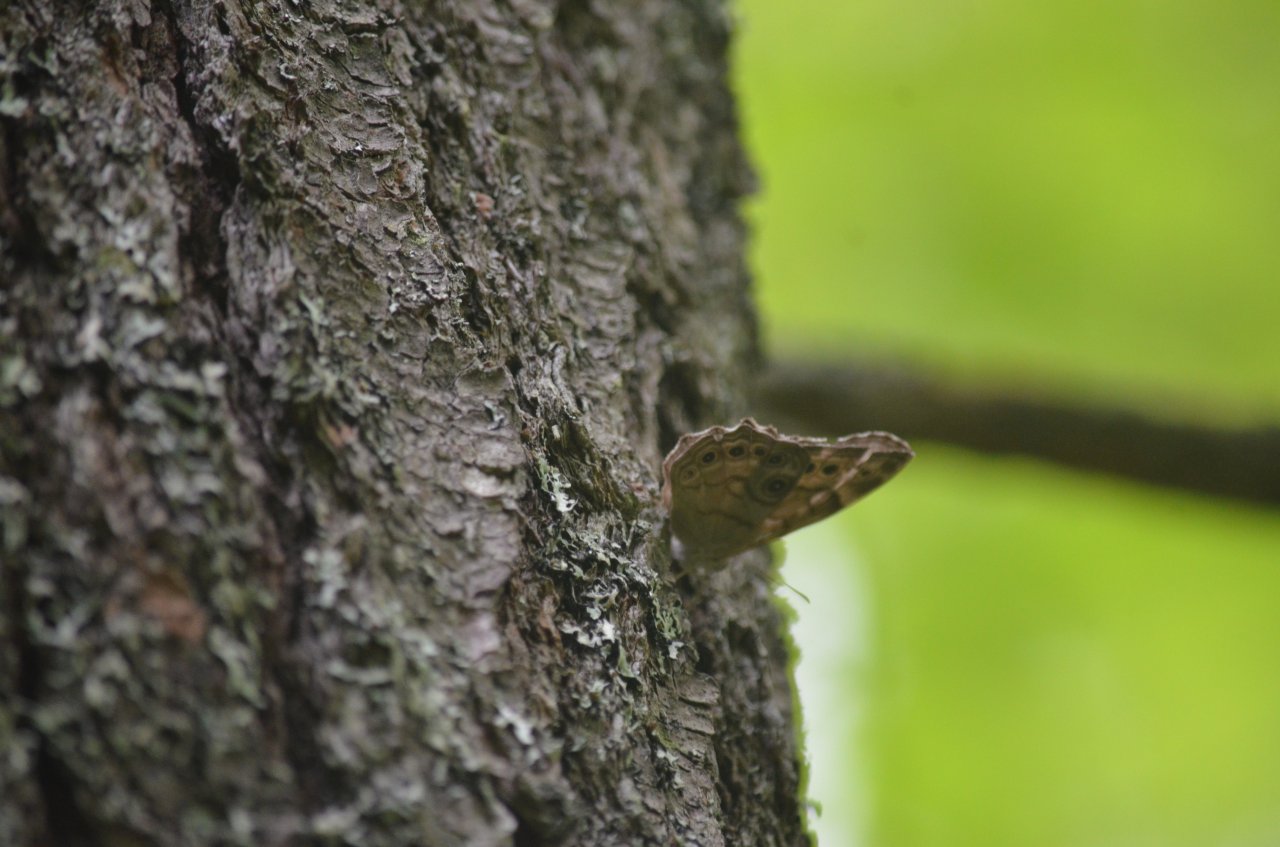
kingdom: Animalia
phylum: Arthropoda
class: Insecta
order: Lepidoptera
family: Nymphalidae
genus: Lethe
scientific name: Lethe anthedon
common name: Northern Pearly-Eye
